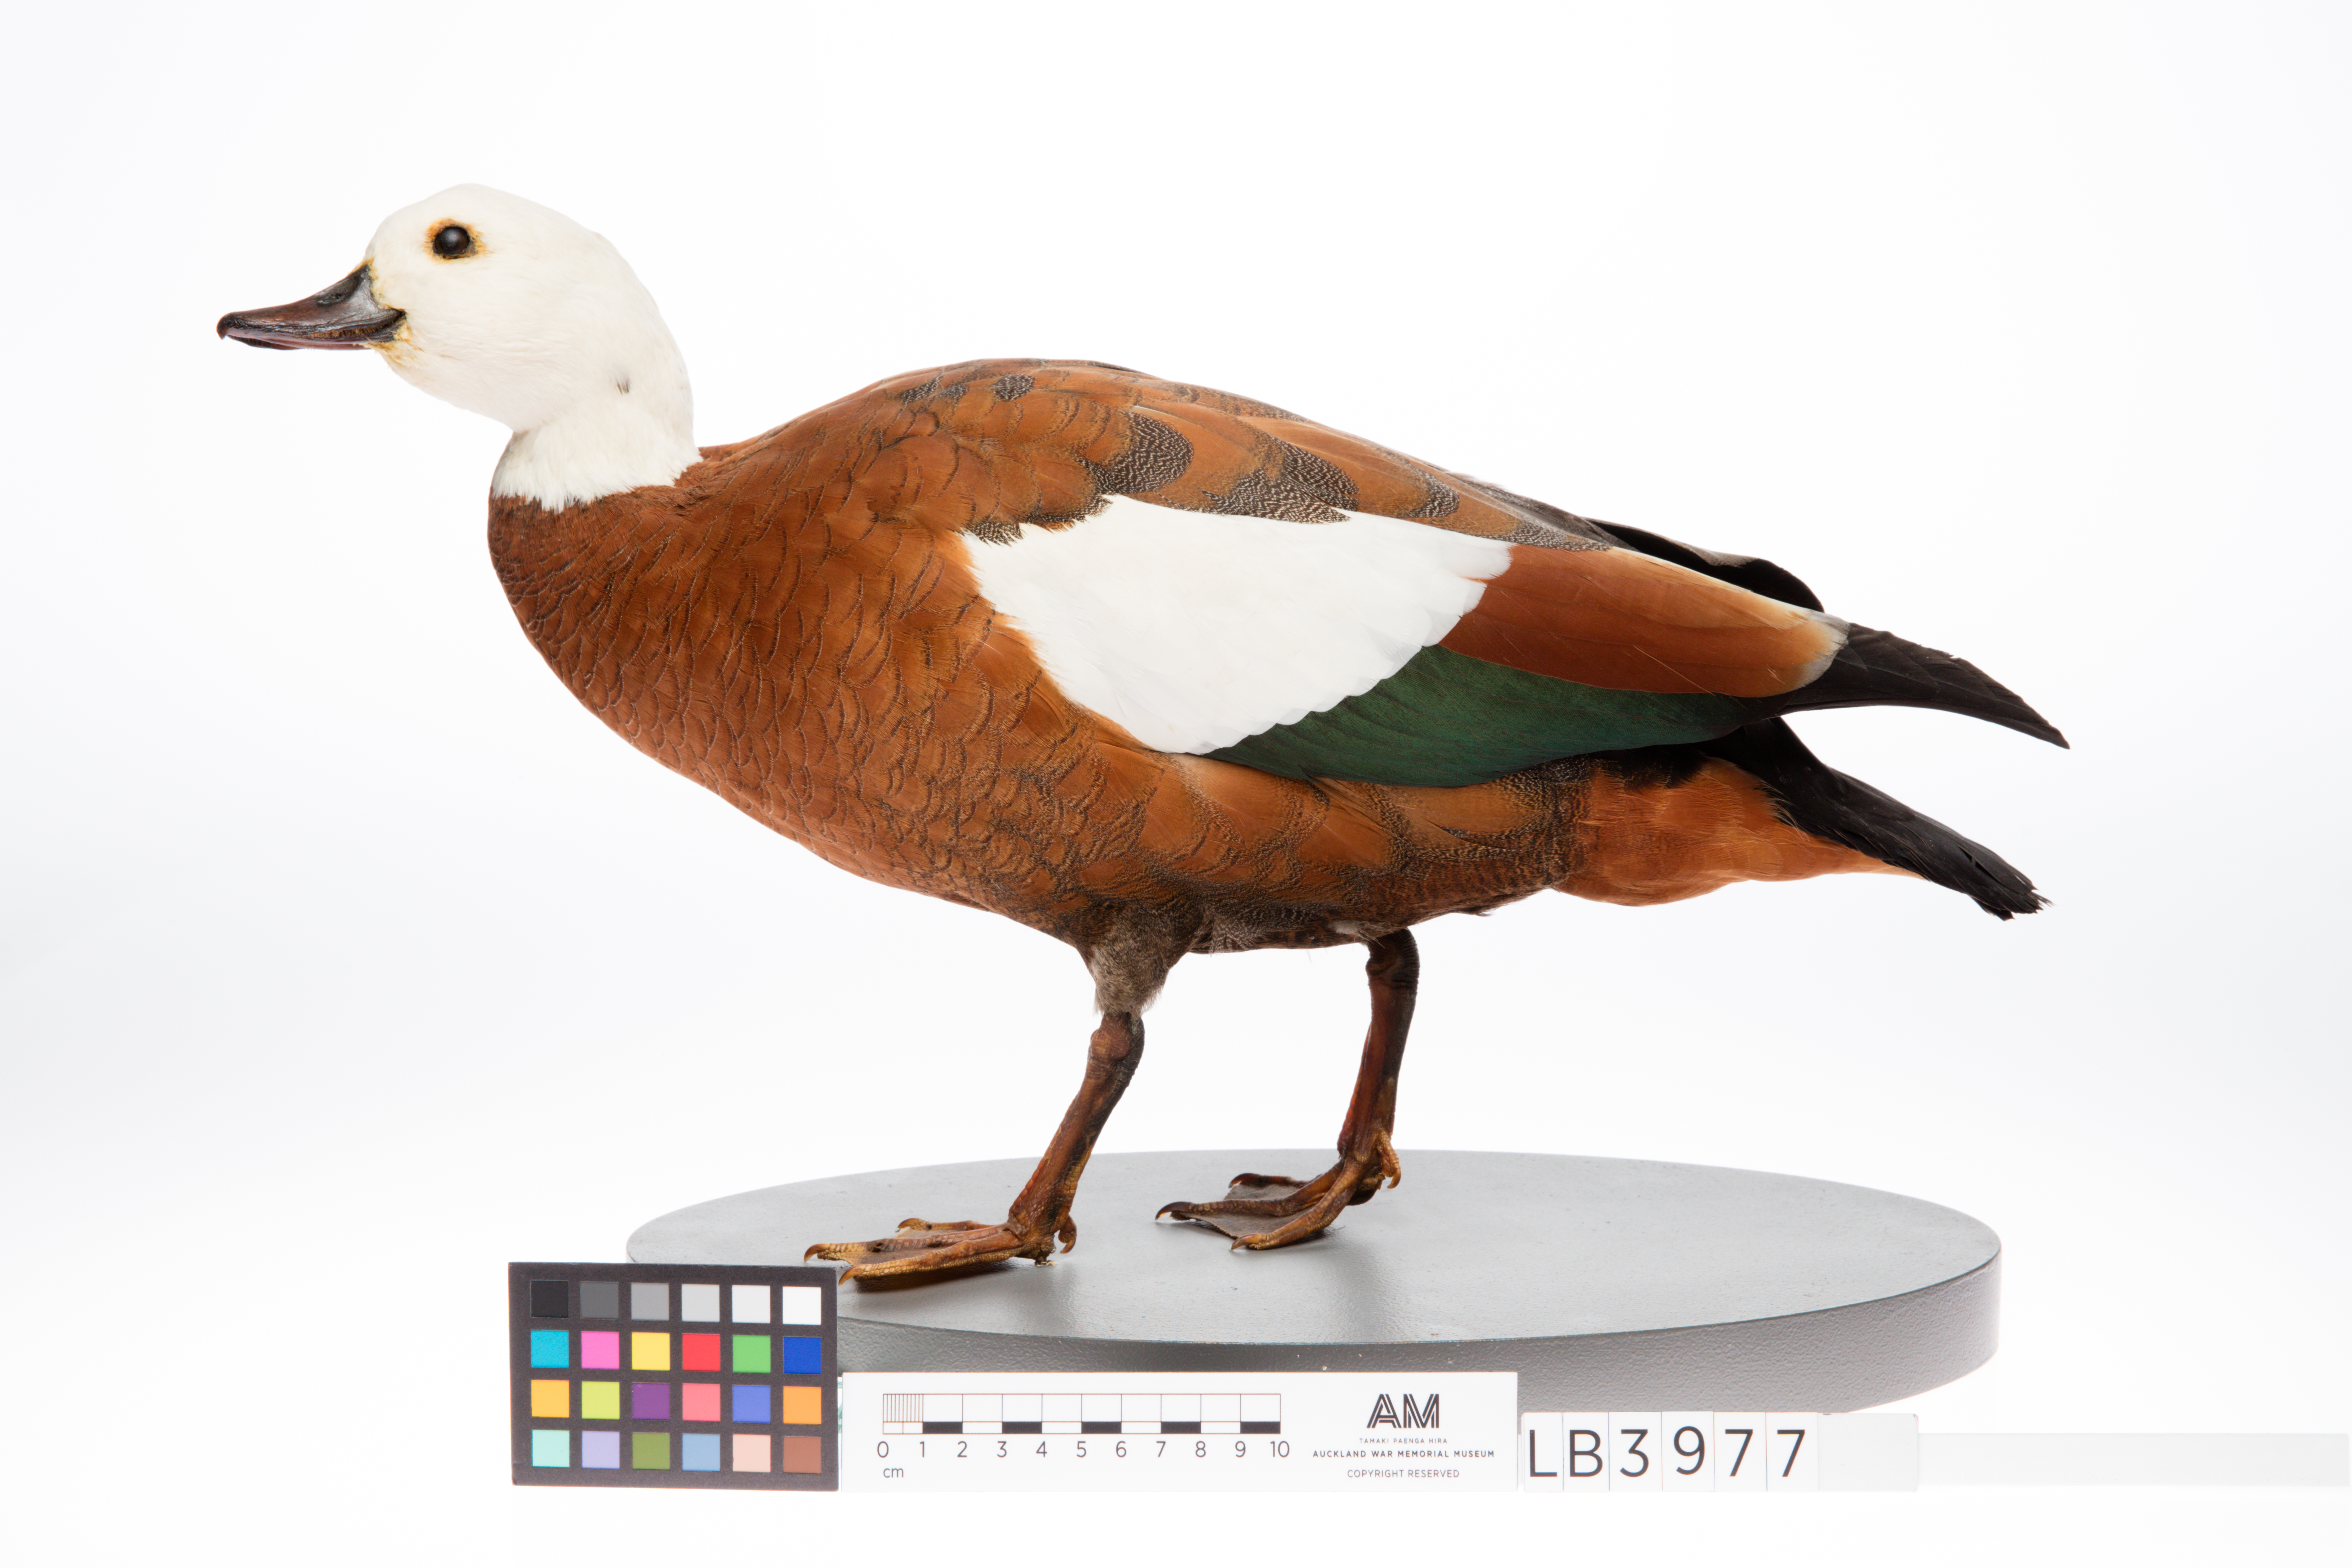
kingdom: Animalia
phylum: Chordata
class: Aves
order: Anseriformes
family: Anatidae
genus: Tadorna
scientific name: Tadorna variegata
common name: Paradise shelduck
